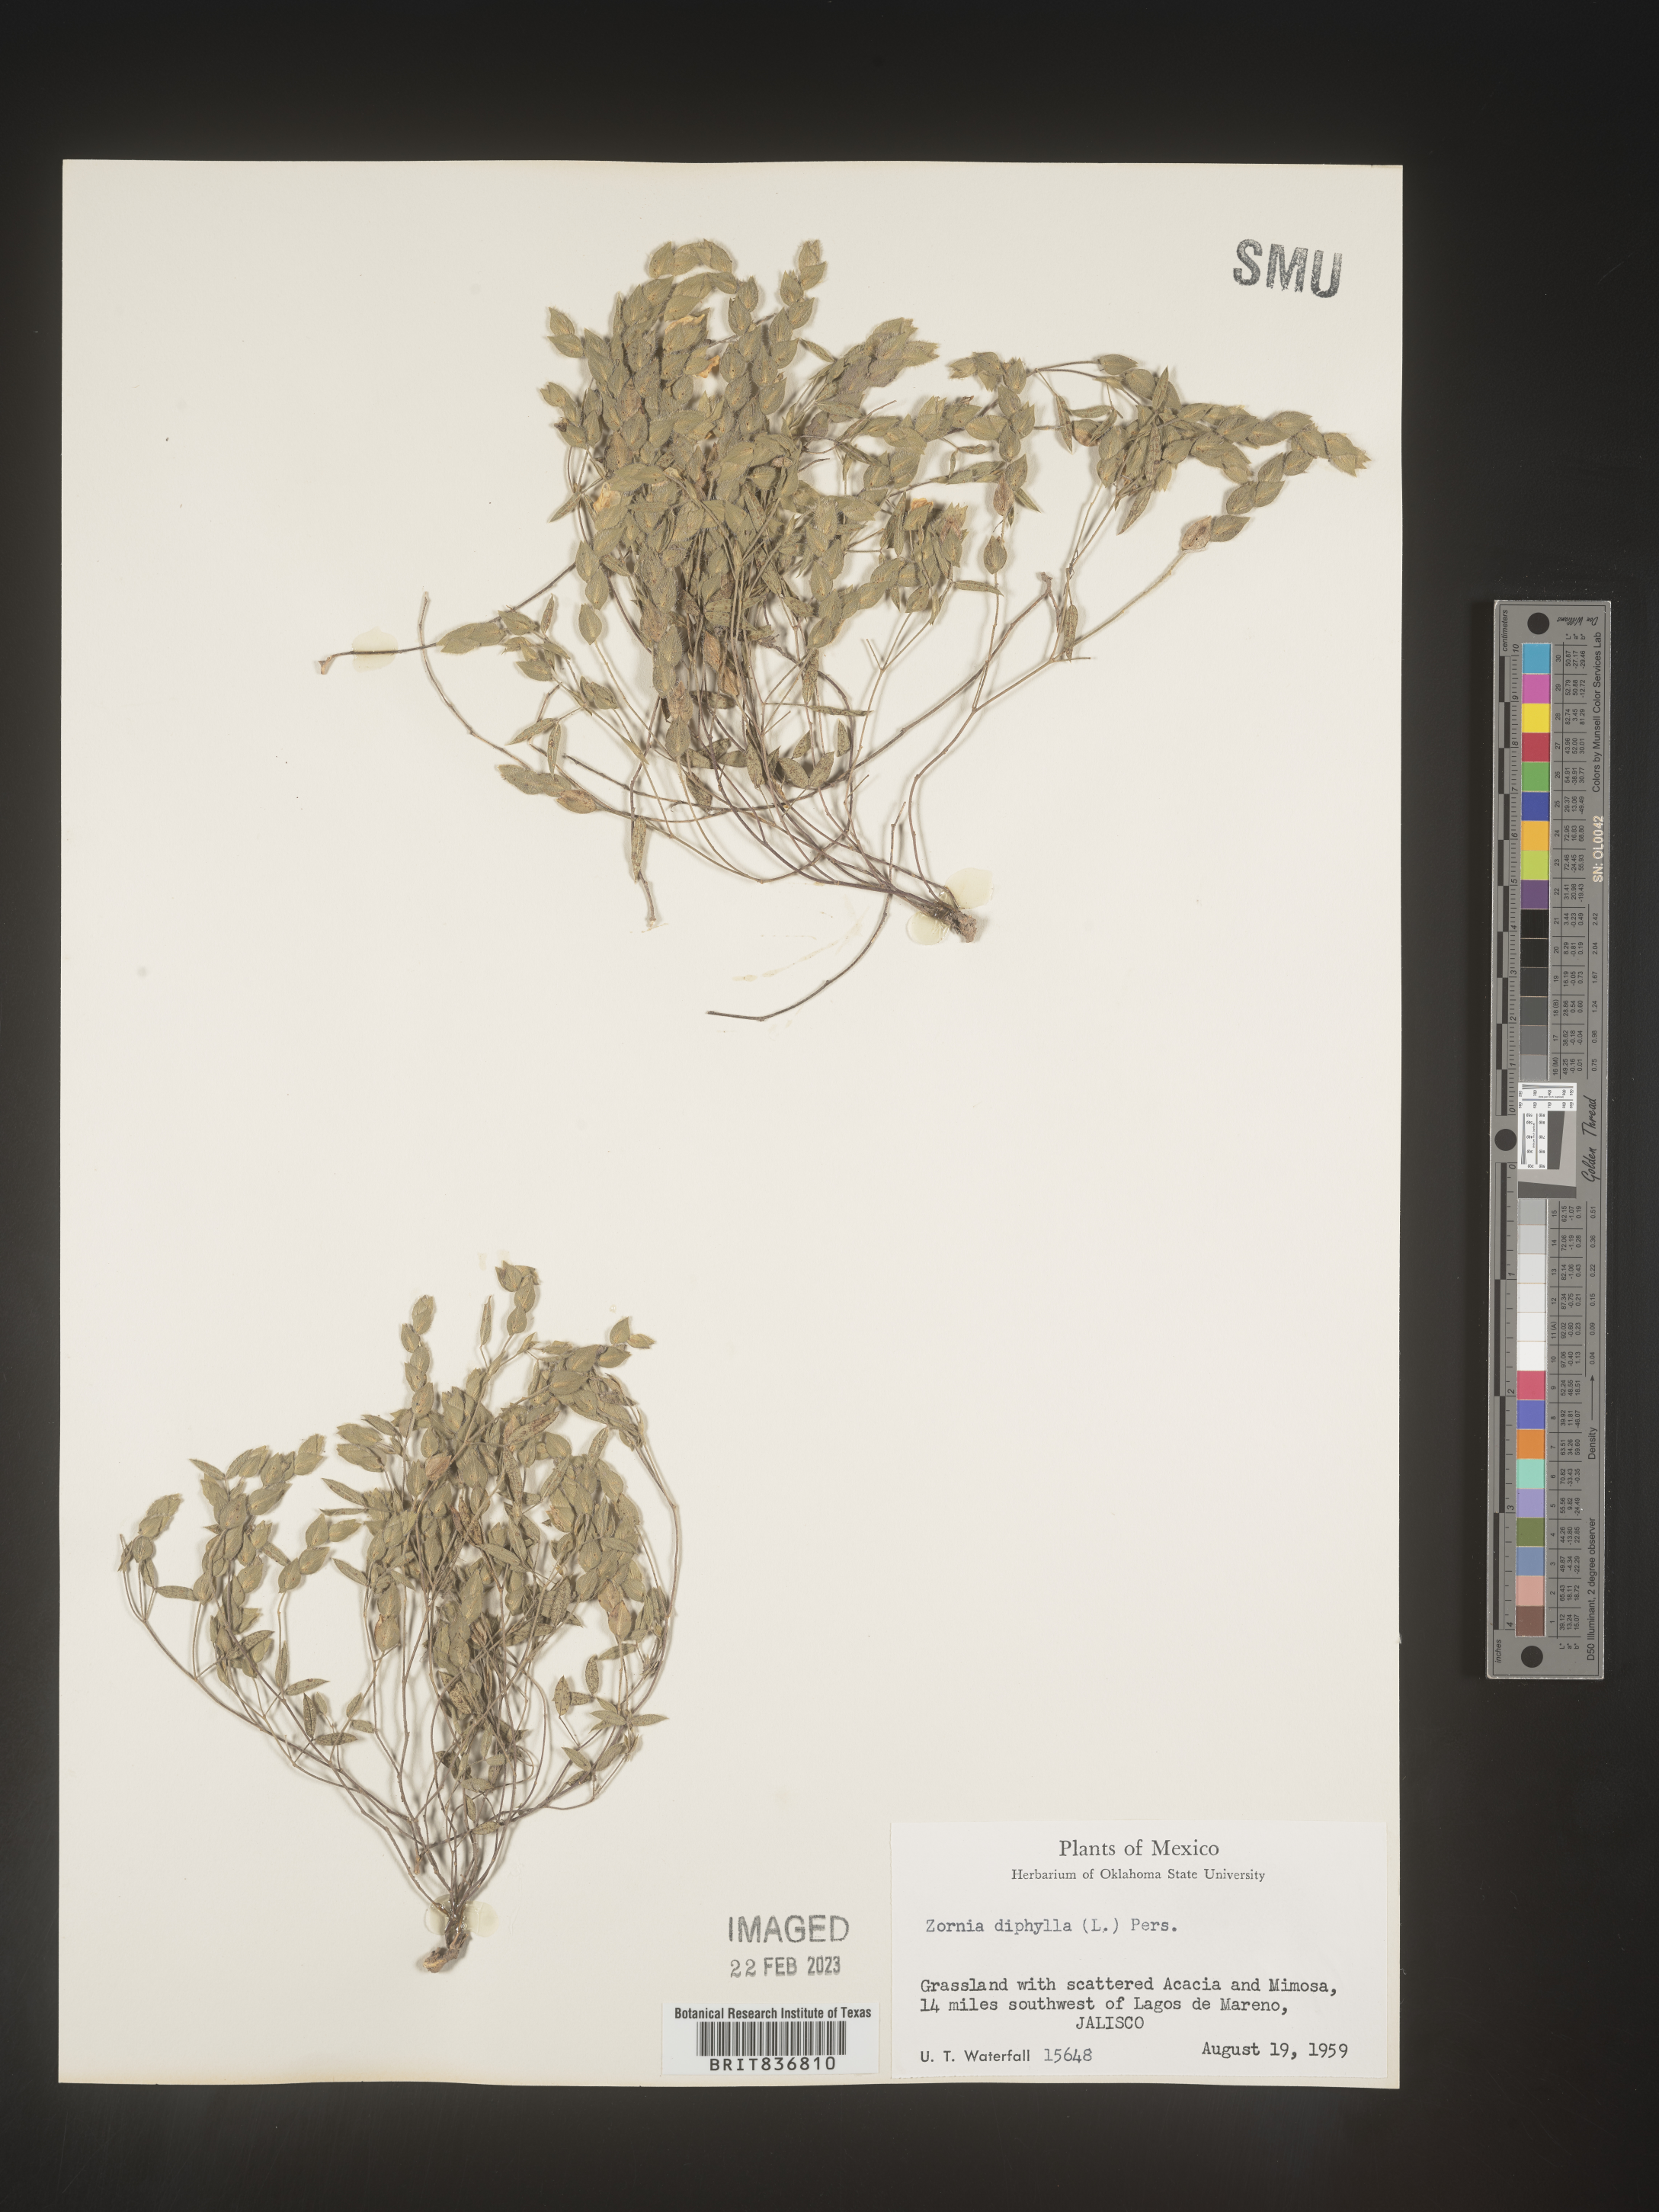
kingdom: Plantae
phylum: Tracheophyta
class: Magnoliopsida
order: Fabales
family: Fabaceae
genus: Zornia
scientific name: Zornia
